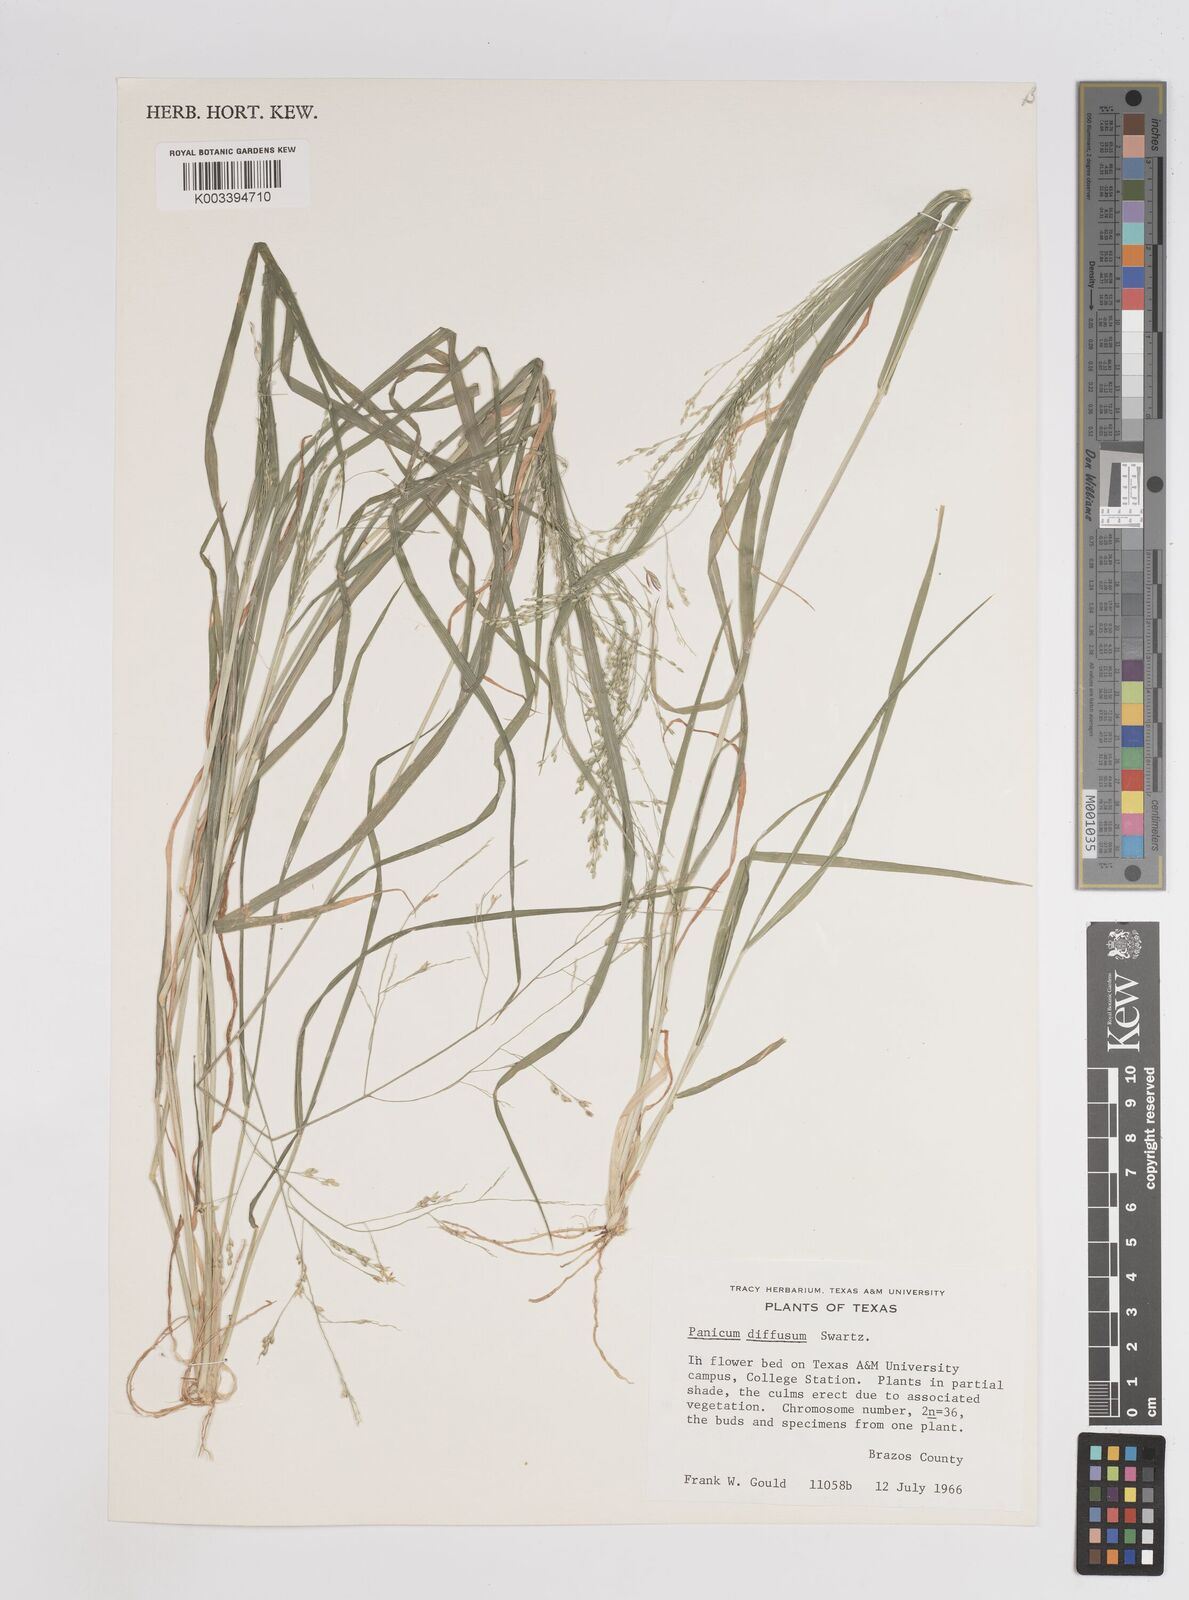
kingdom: Plantae
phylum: Tracheophyta
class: Liliopsida
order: Poales
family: Poaceae
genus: Panicum
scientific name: Panicum diffusum
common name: Spreading panicgrass
